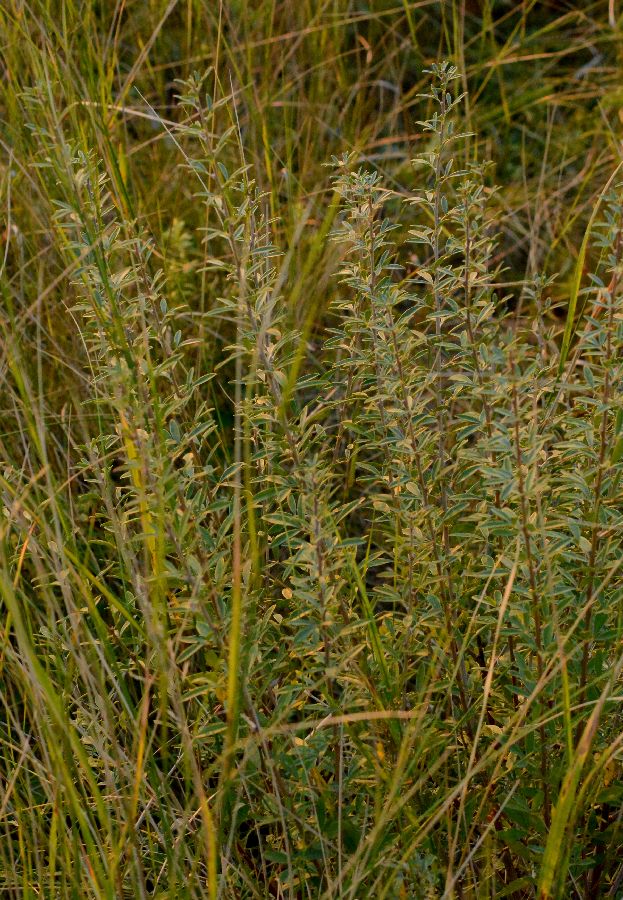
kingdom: Plantae
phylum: Tracheophyta
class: Magnoliopsida
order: Fabales
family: Fabaceae
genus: Chamaecytisus
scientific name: Chamaecytisus ruthenicus
